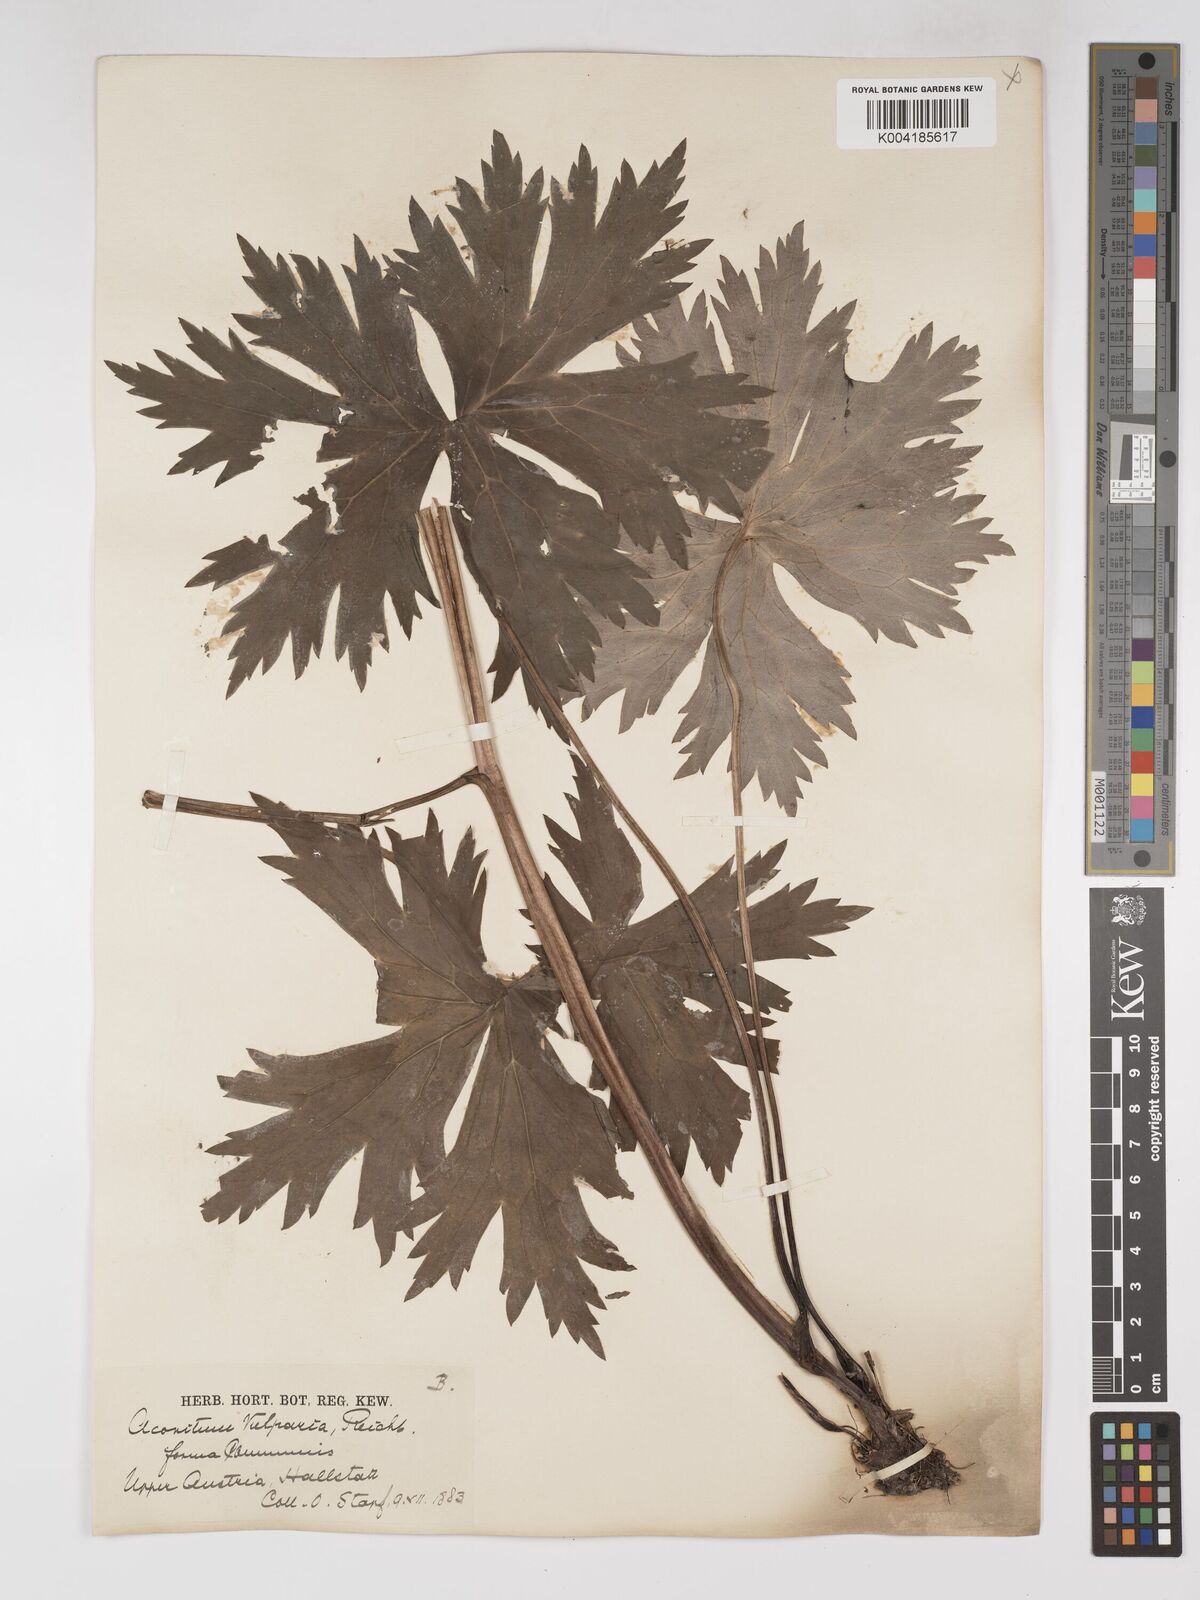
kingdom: Plantae
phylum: Tracheophyta
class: Magnoliopsida
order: Ranunculales
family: Ranunculaceae
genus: Aconitum
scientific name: Aconitum lycoctonum
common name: Wolf's-bane
